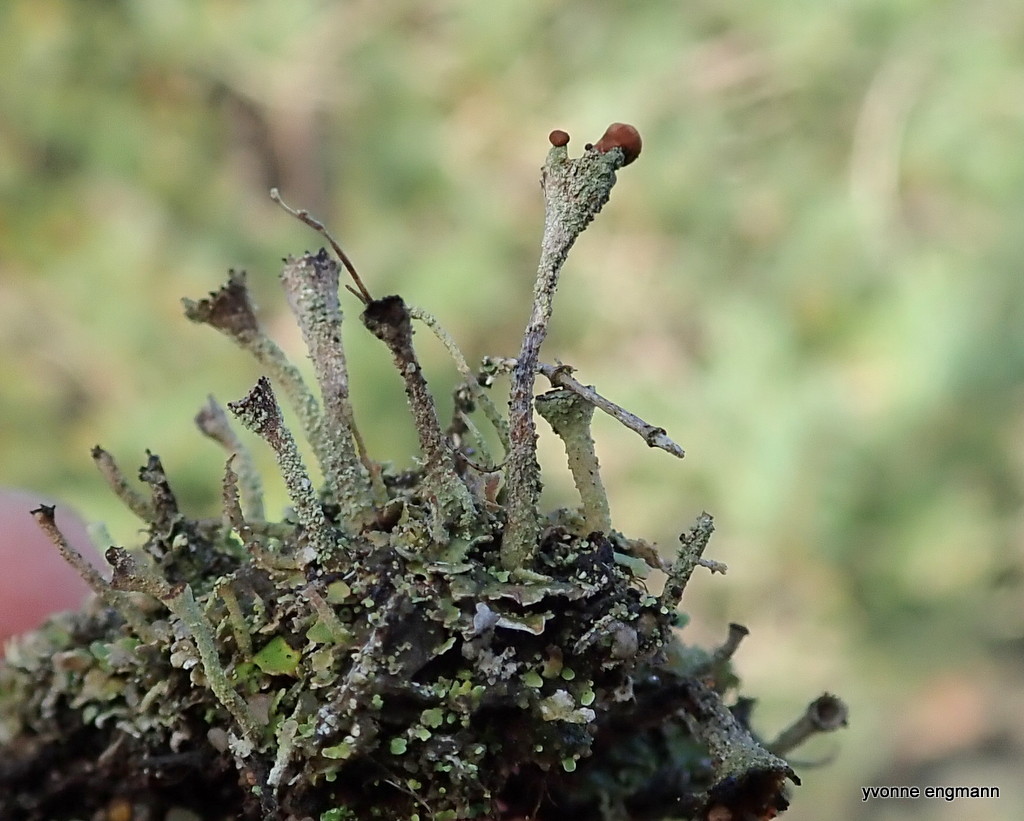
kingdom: Fungi
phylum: Ascomycota
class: Lecanoromycetes
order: Lecanorales
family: Cladoniaceae
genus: Cladonia
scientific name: Cladonia
